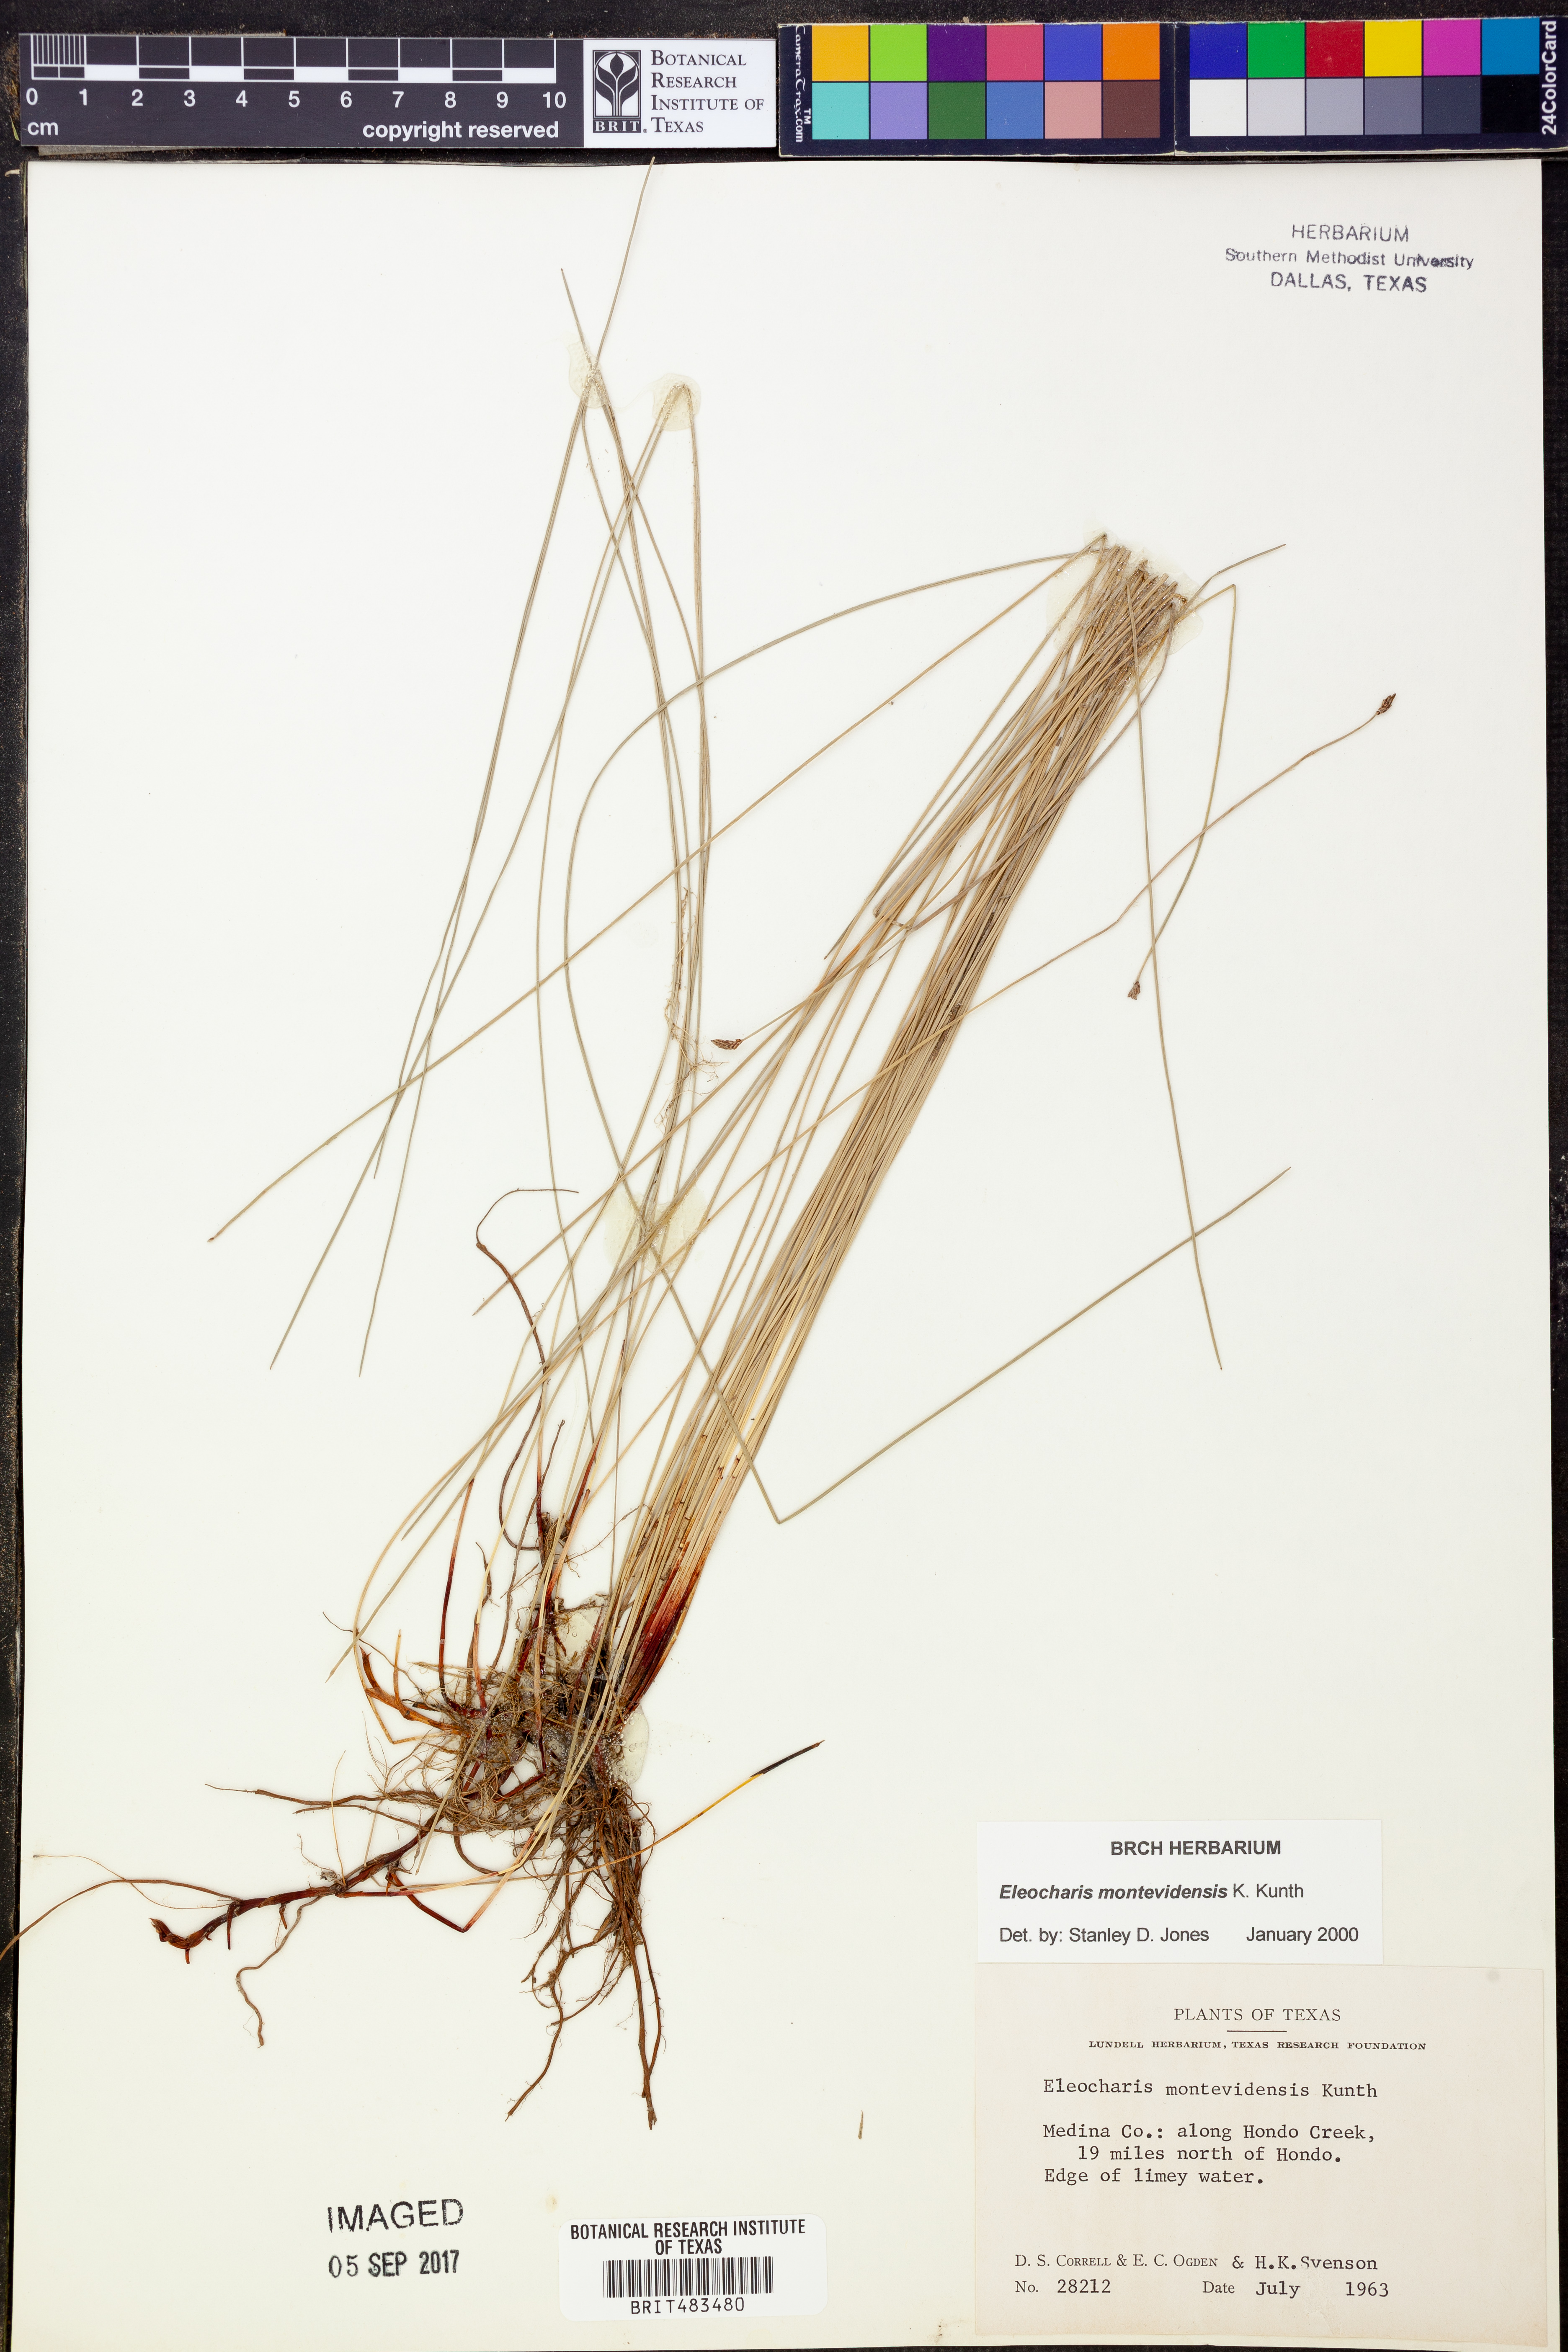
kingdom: Plantae
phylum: Tracheophyta
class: Liliopsida
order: Poales
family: Cyperaceae
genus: Eleocharis
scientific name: Eleocharis montevidensis
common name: Sand spike-rush
